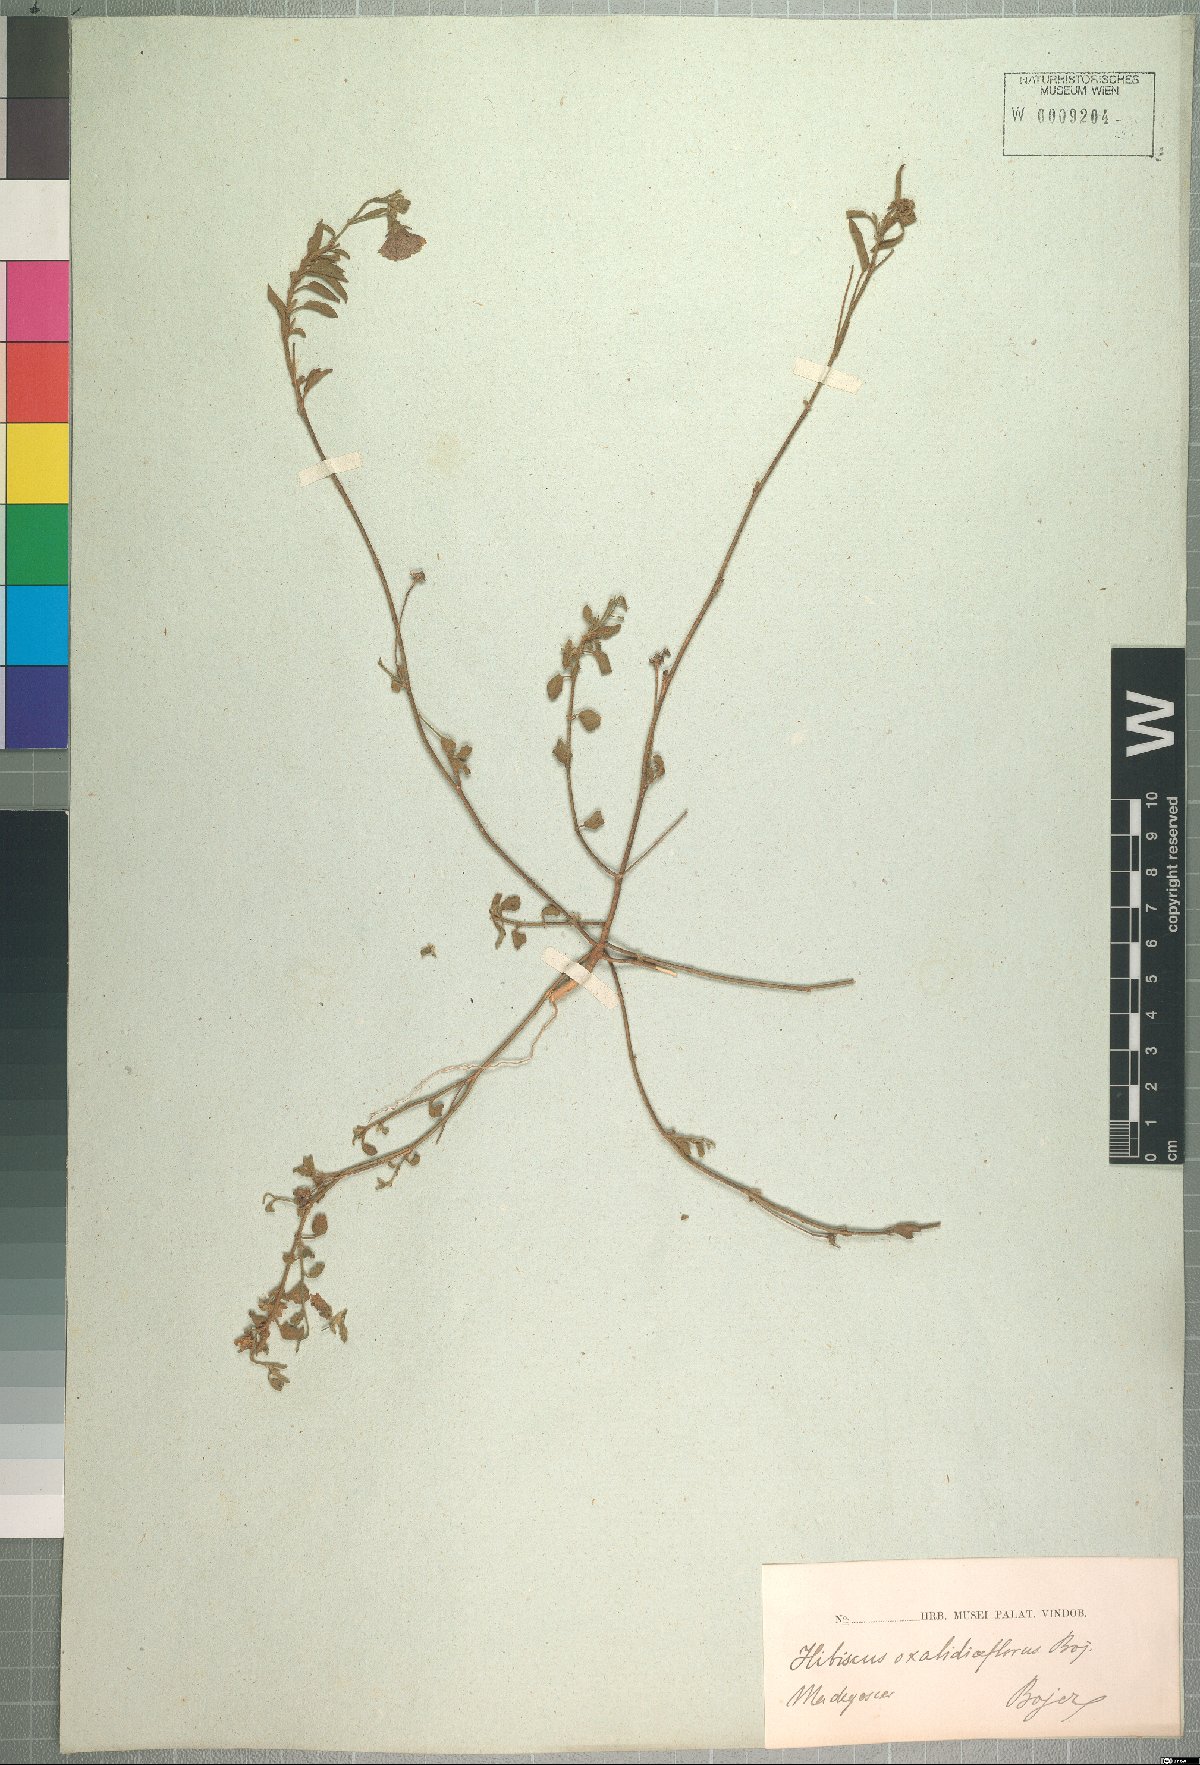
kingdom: Plantae
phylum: Tracheophyta
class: Magnoliopsida
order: Malvales
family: Malvaceae
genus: Hibiscus
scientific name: Hibiscus oxaliflorus
